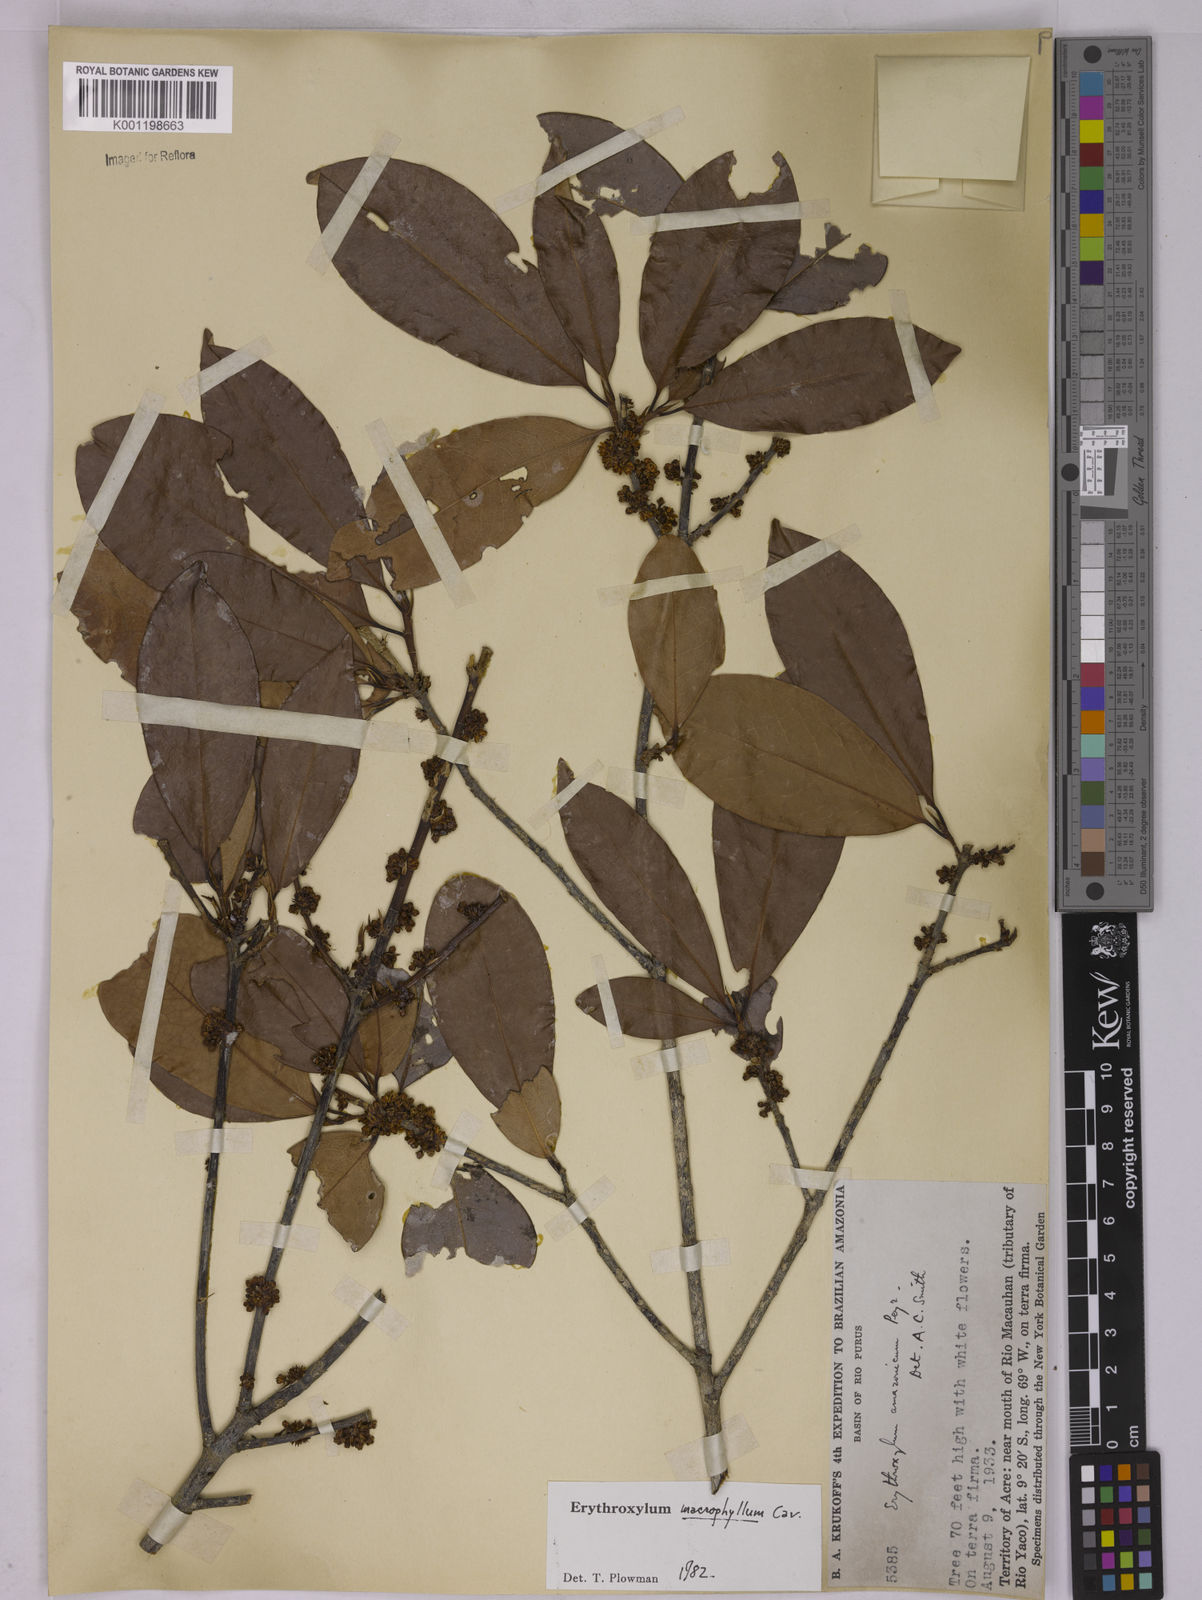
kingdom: Plantae
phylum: Tracheophyta
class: Magnoliopsida
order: Malpighiales
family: Erythroxylaceae
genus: Erythroxylum
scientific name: Erythroxylum macrophyllum
